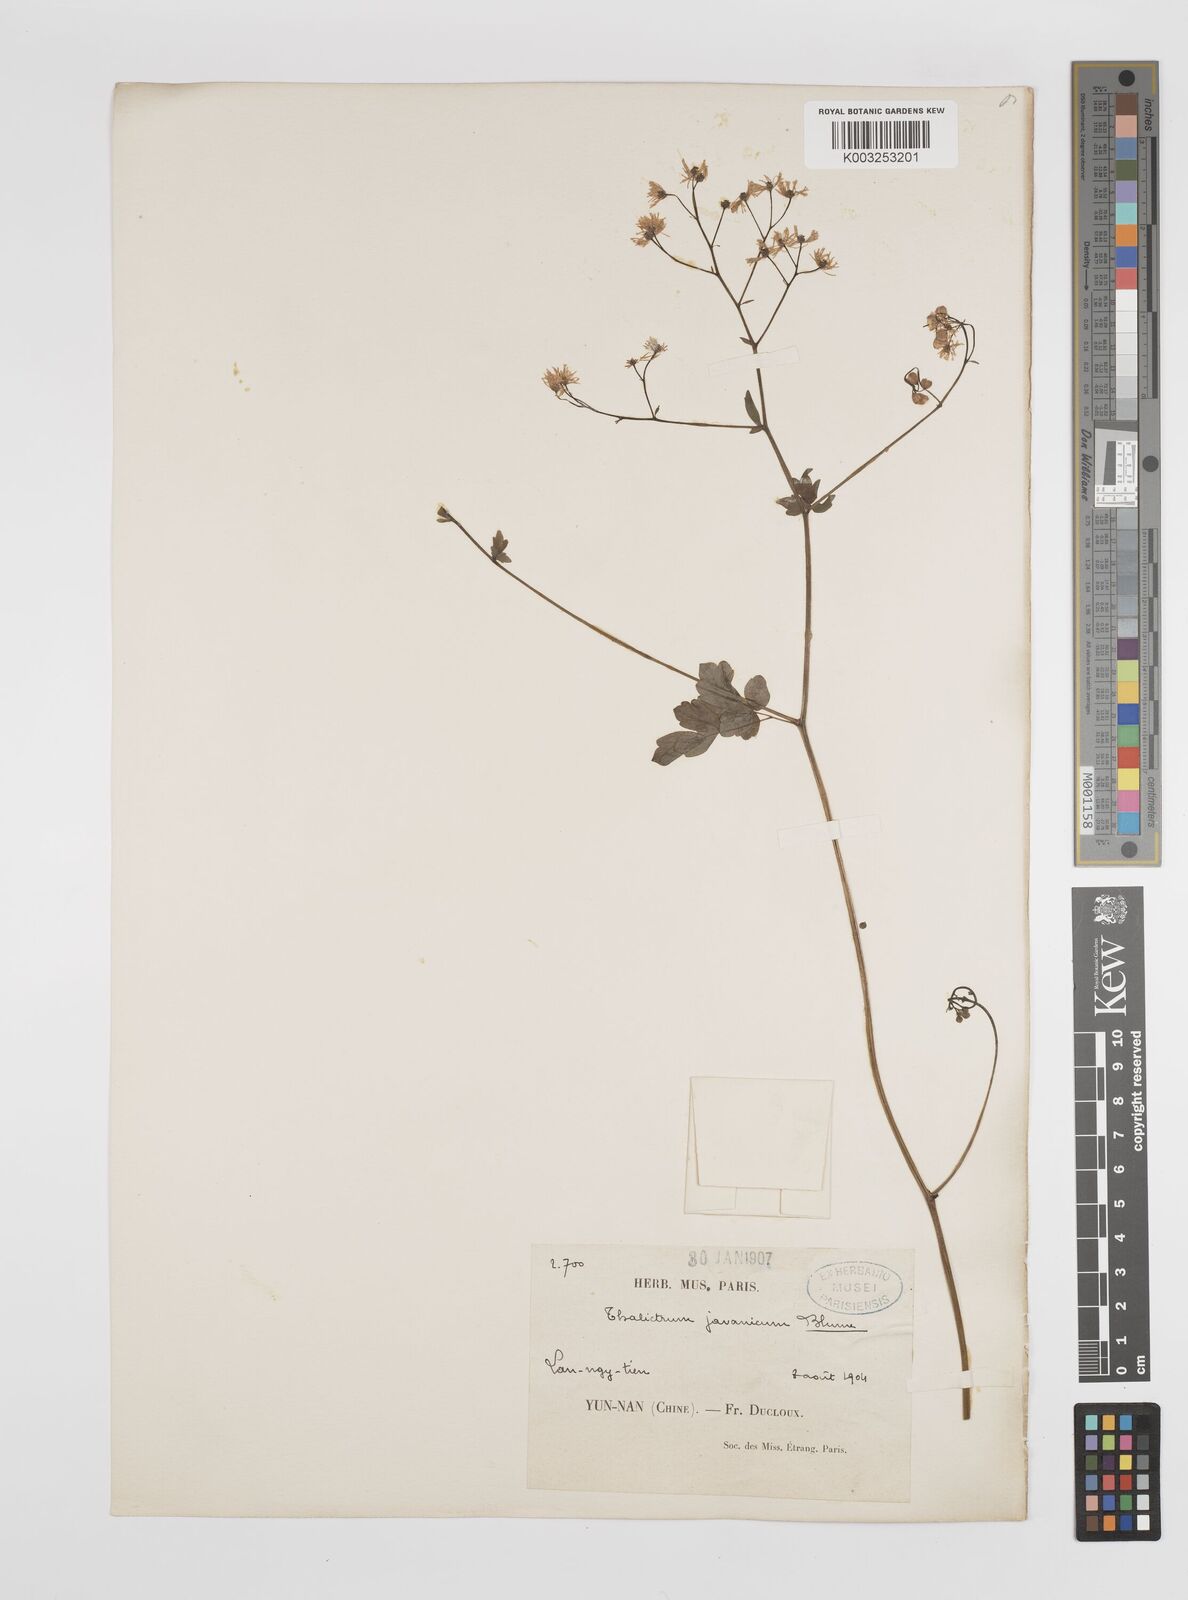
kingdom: Plantae
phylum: Tracheophyta
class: Magnoliopsida
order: Ranunculales
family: Ranunculaceae
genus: Thalictrum
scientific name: Thalictrum javanicum
